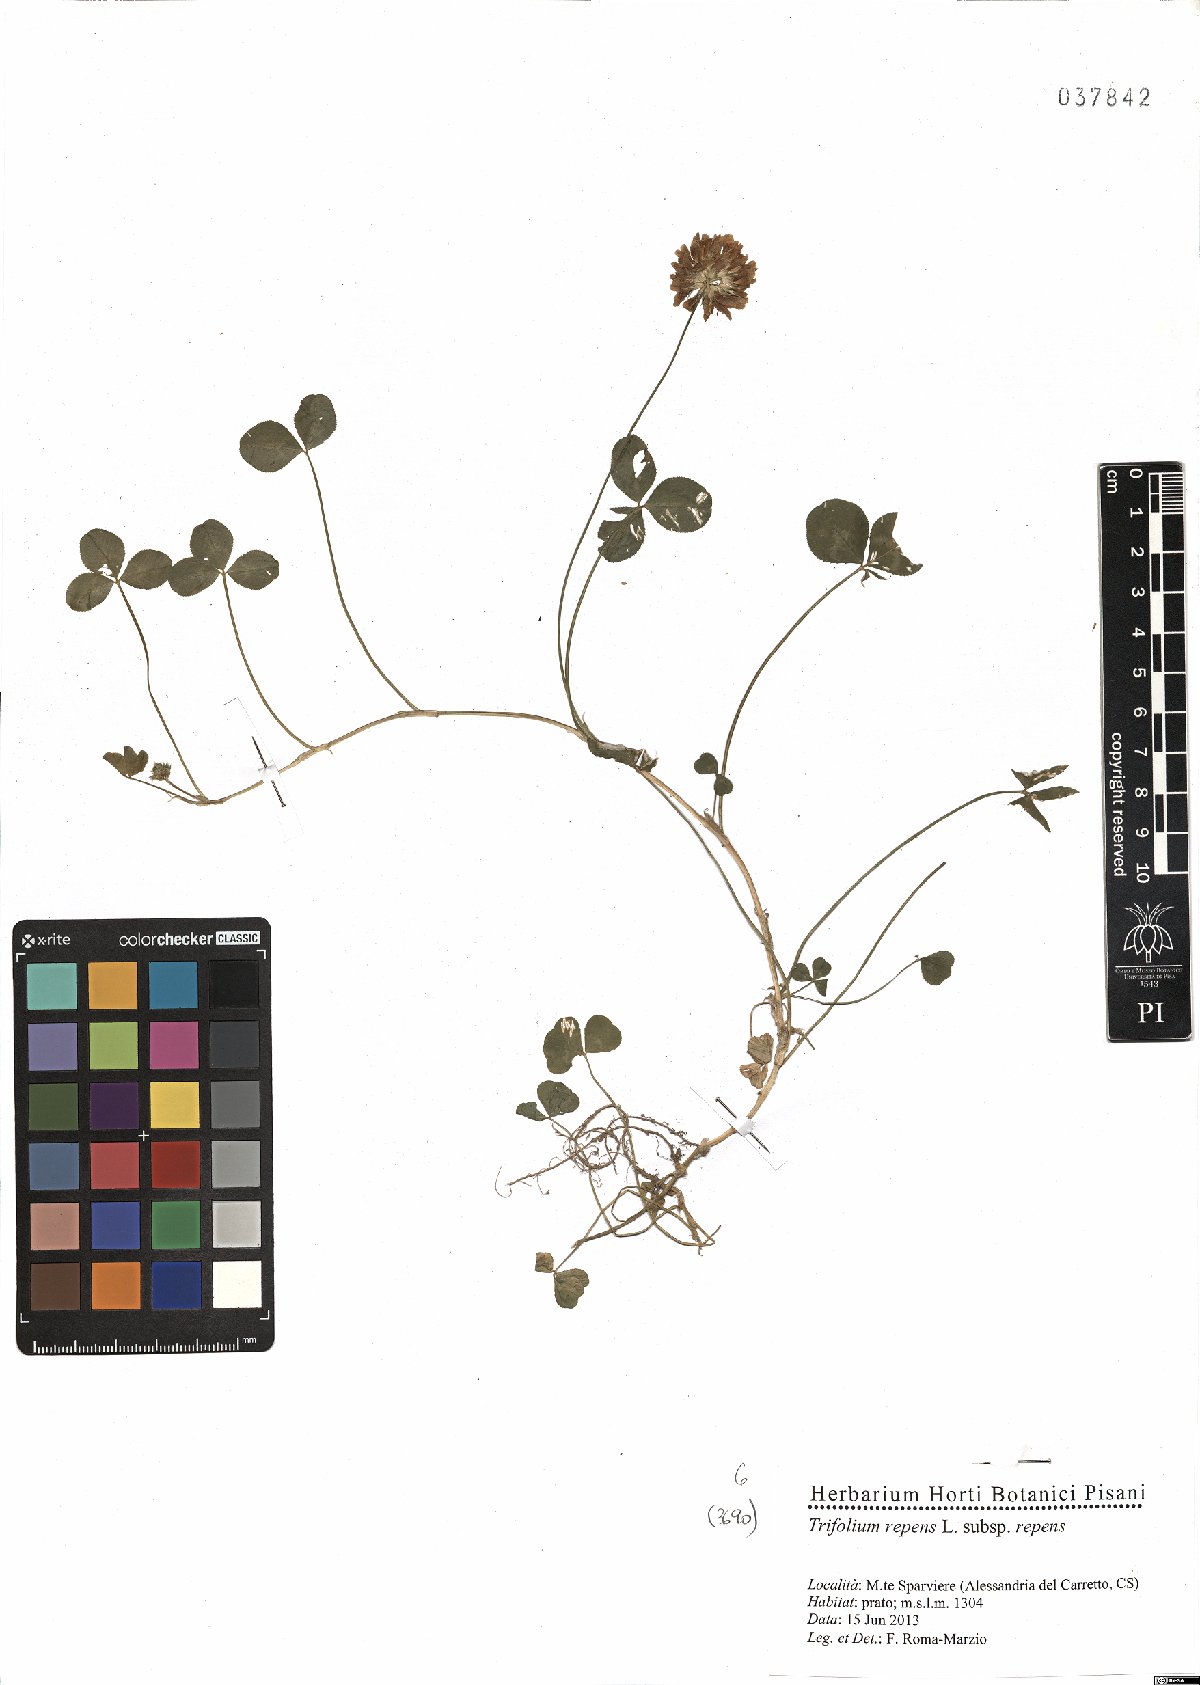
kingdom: Plantae
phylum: Tracheophyta
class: Magnoliopsida
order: Fabales
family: Fabaceae
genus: Trifolium
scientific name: Trifolium repens
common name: White clover
